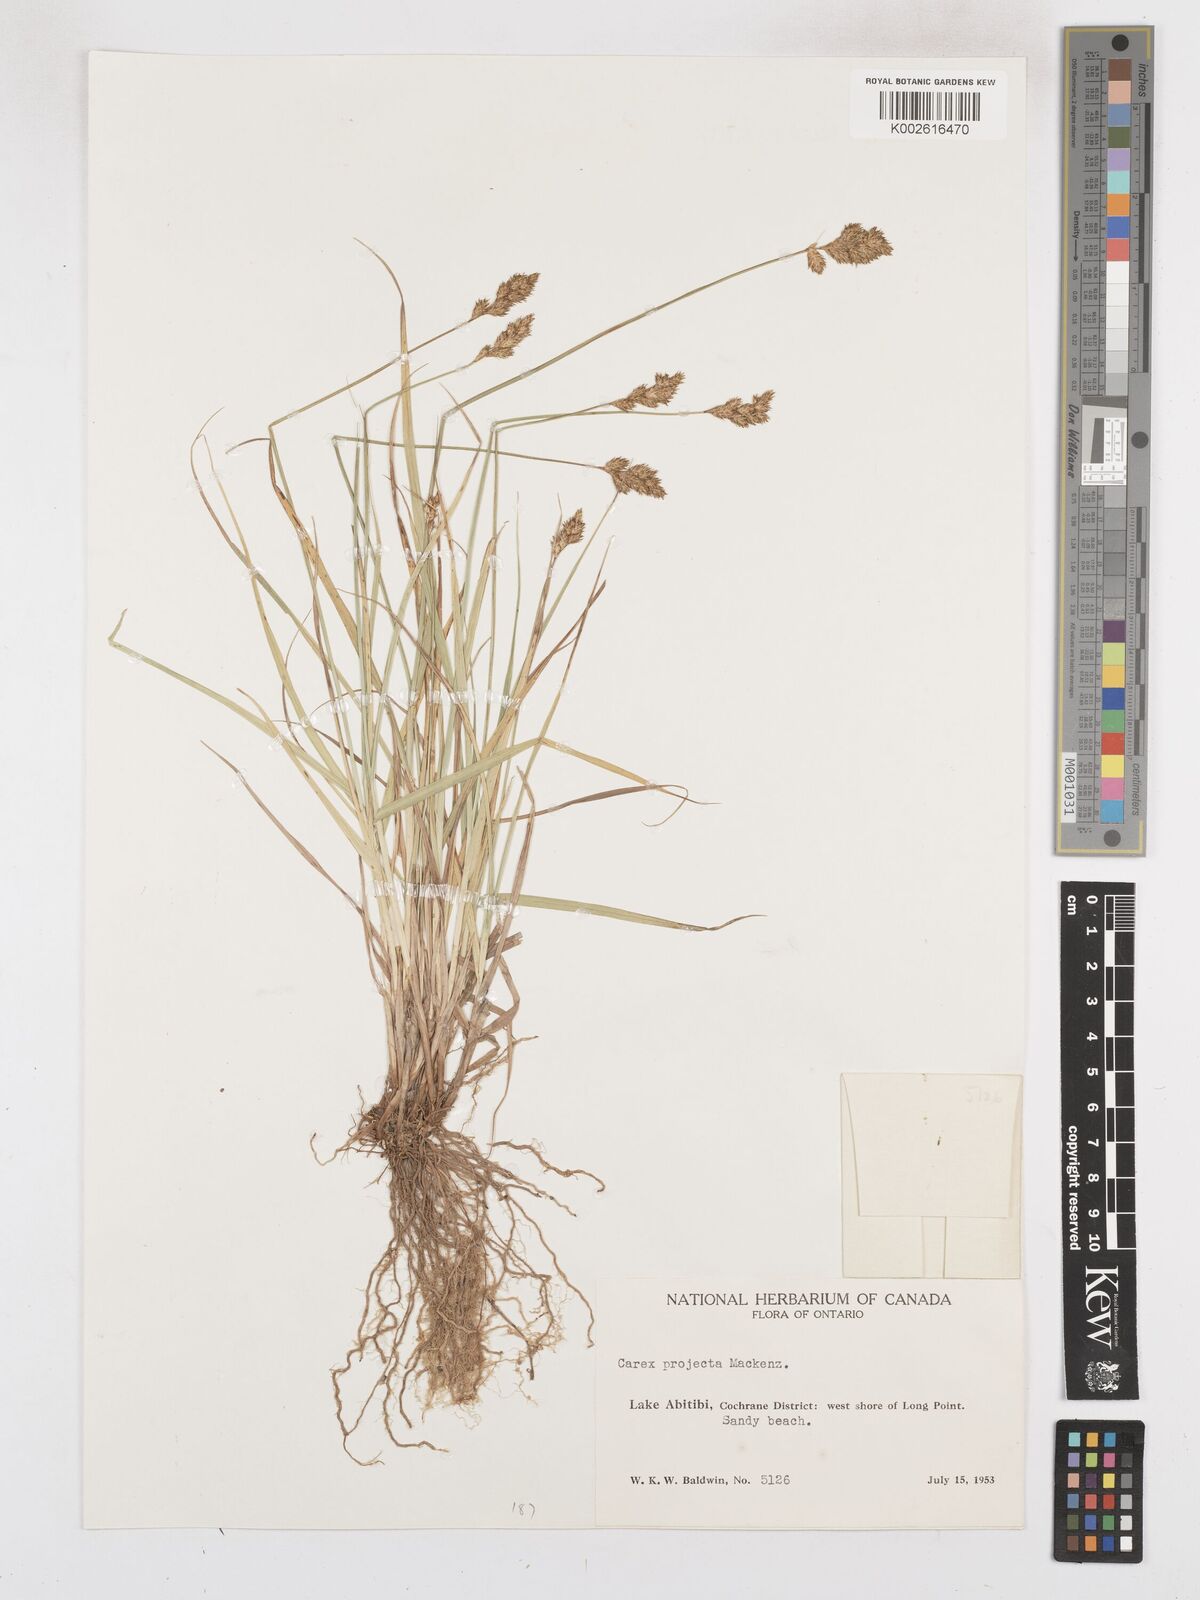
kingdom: Plantae
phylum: Tracheophyta
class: Liliopsida
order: Poales
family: Cyperaceae
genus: Carex
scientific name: Carex projecta
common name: Loose-headed oval sedge
